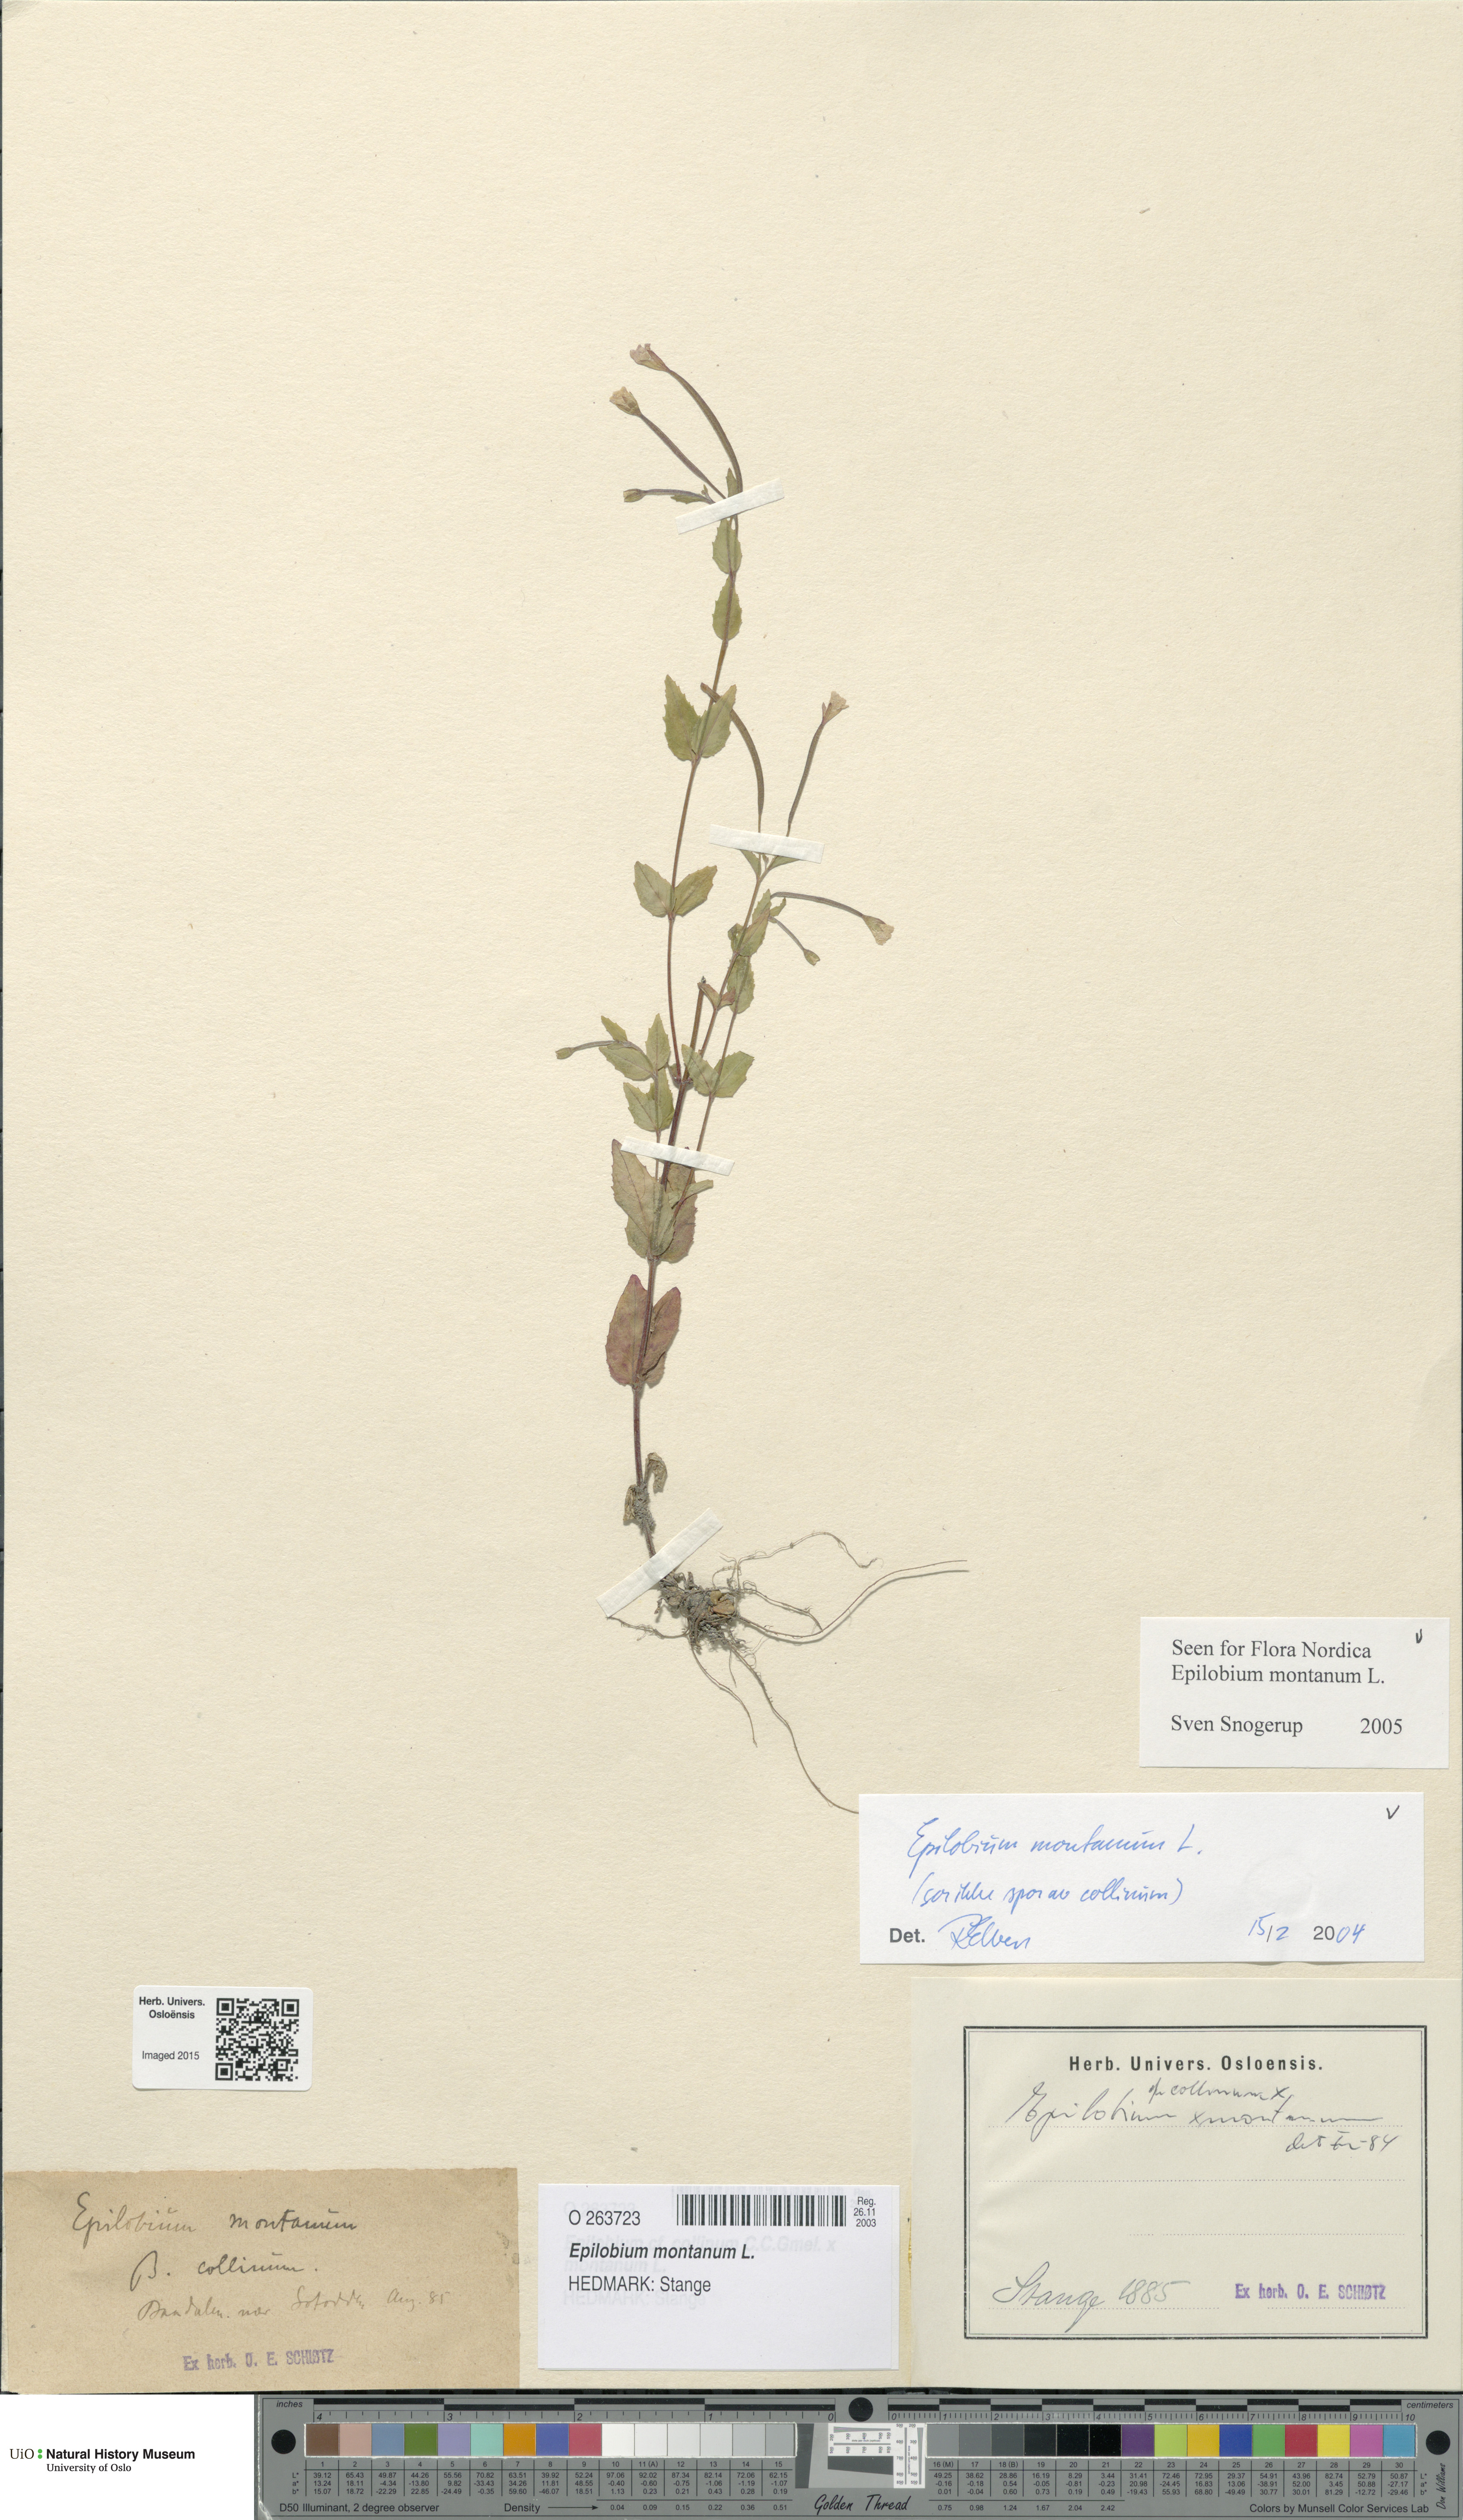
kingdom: Plantae
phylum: Tracheophyta
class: Magnoliopsida
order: Myrtales
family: Onagraceae
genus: Epilobium
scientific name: Epilobium montanum
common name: Broad-leaved willowherb
